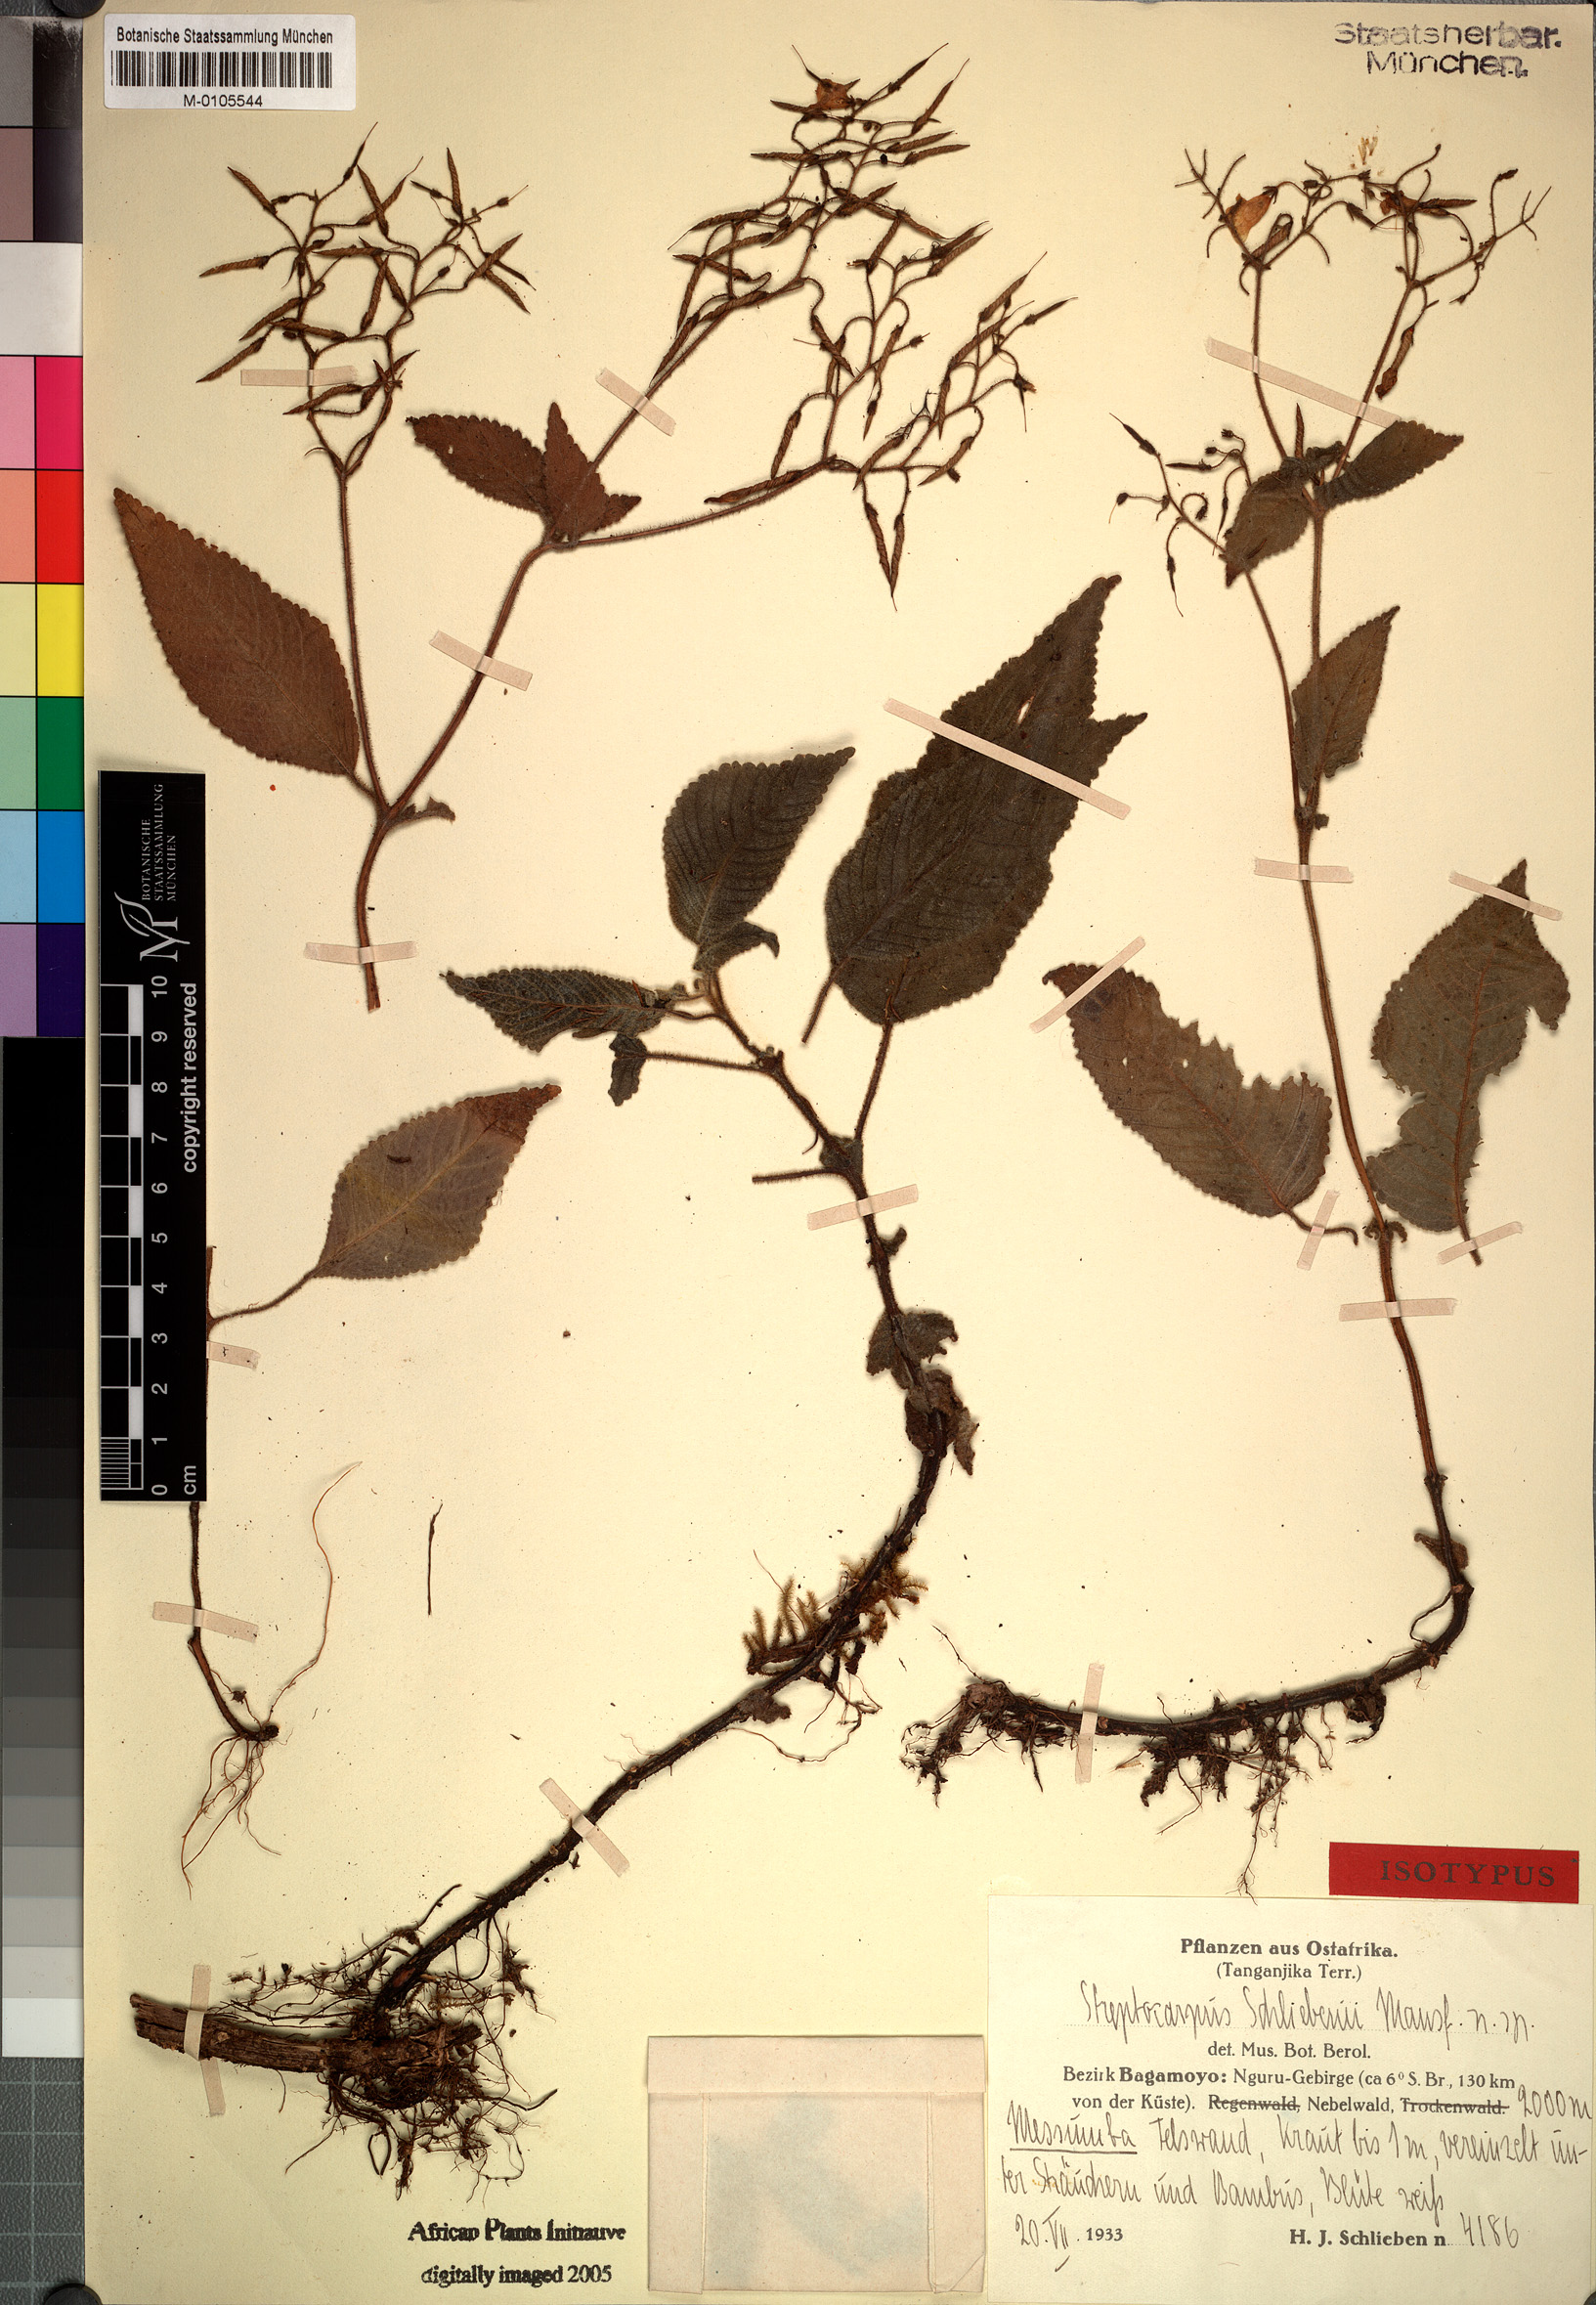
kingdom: Plantae
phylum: Tracheophyta
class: Magnoliopsida
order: Lamiales
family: Gesneriaceae
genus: Streptocarpus
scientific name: Streptocarpus schliebenii
